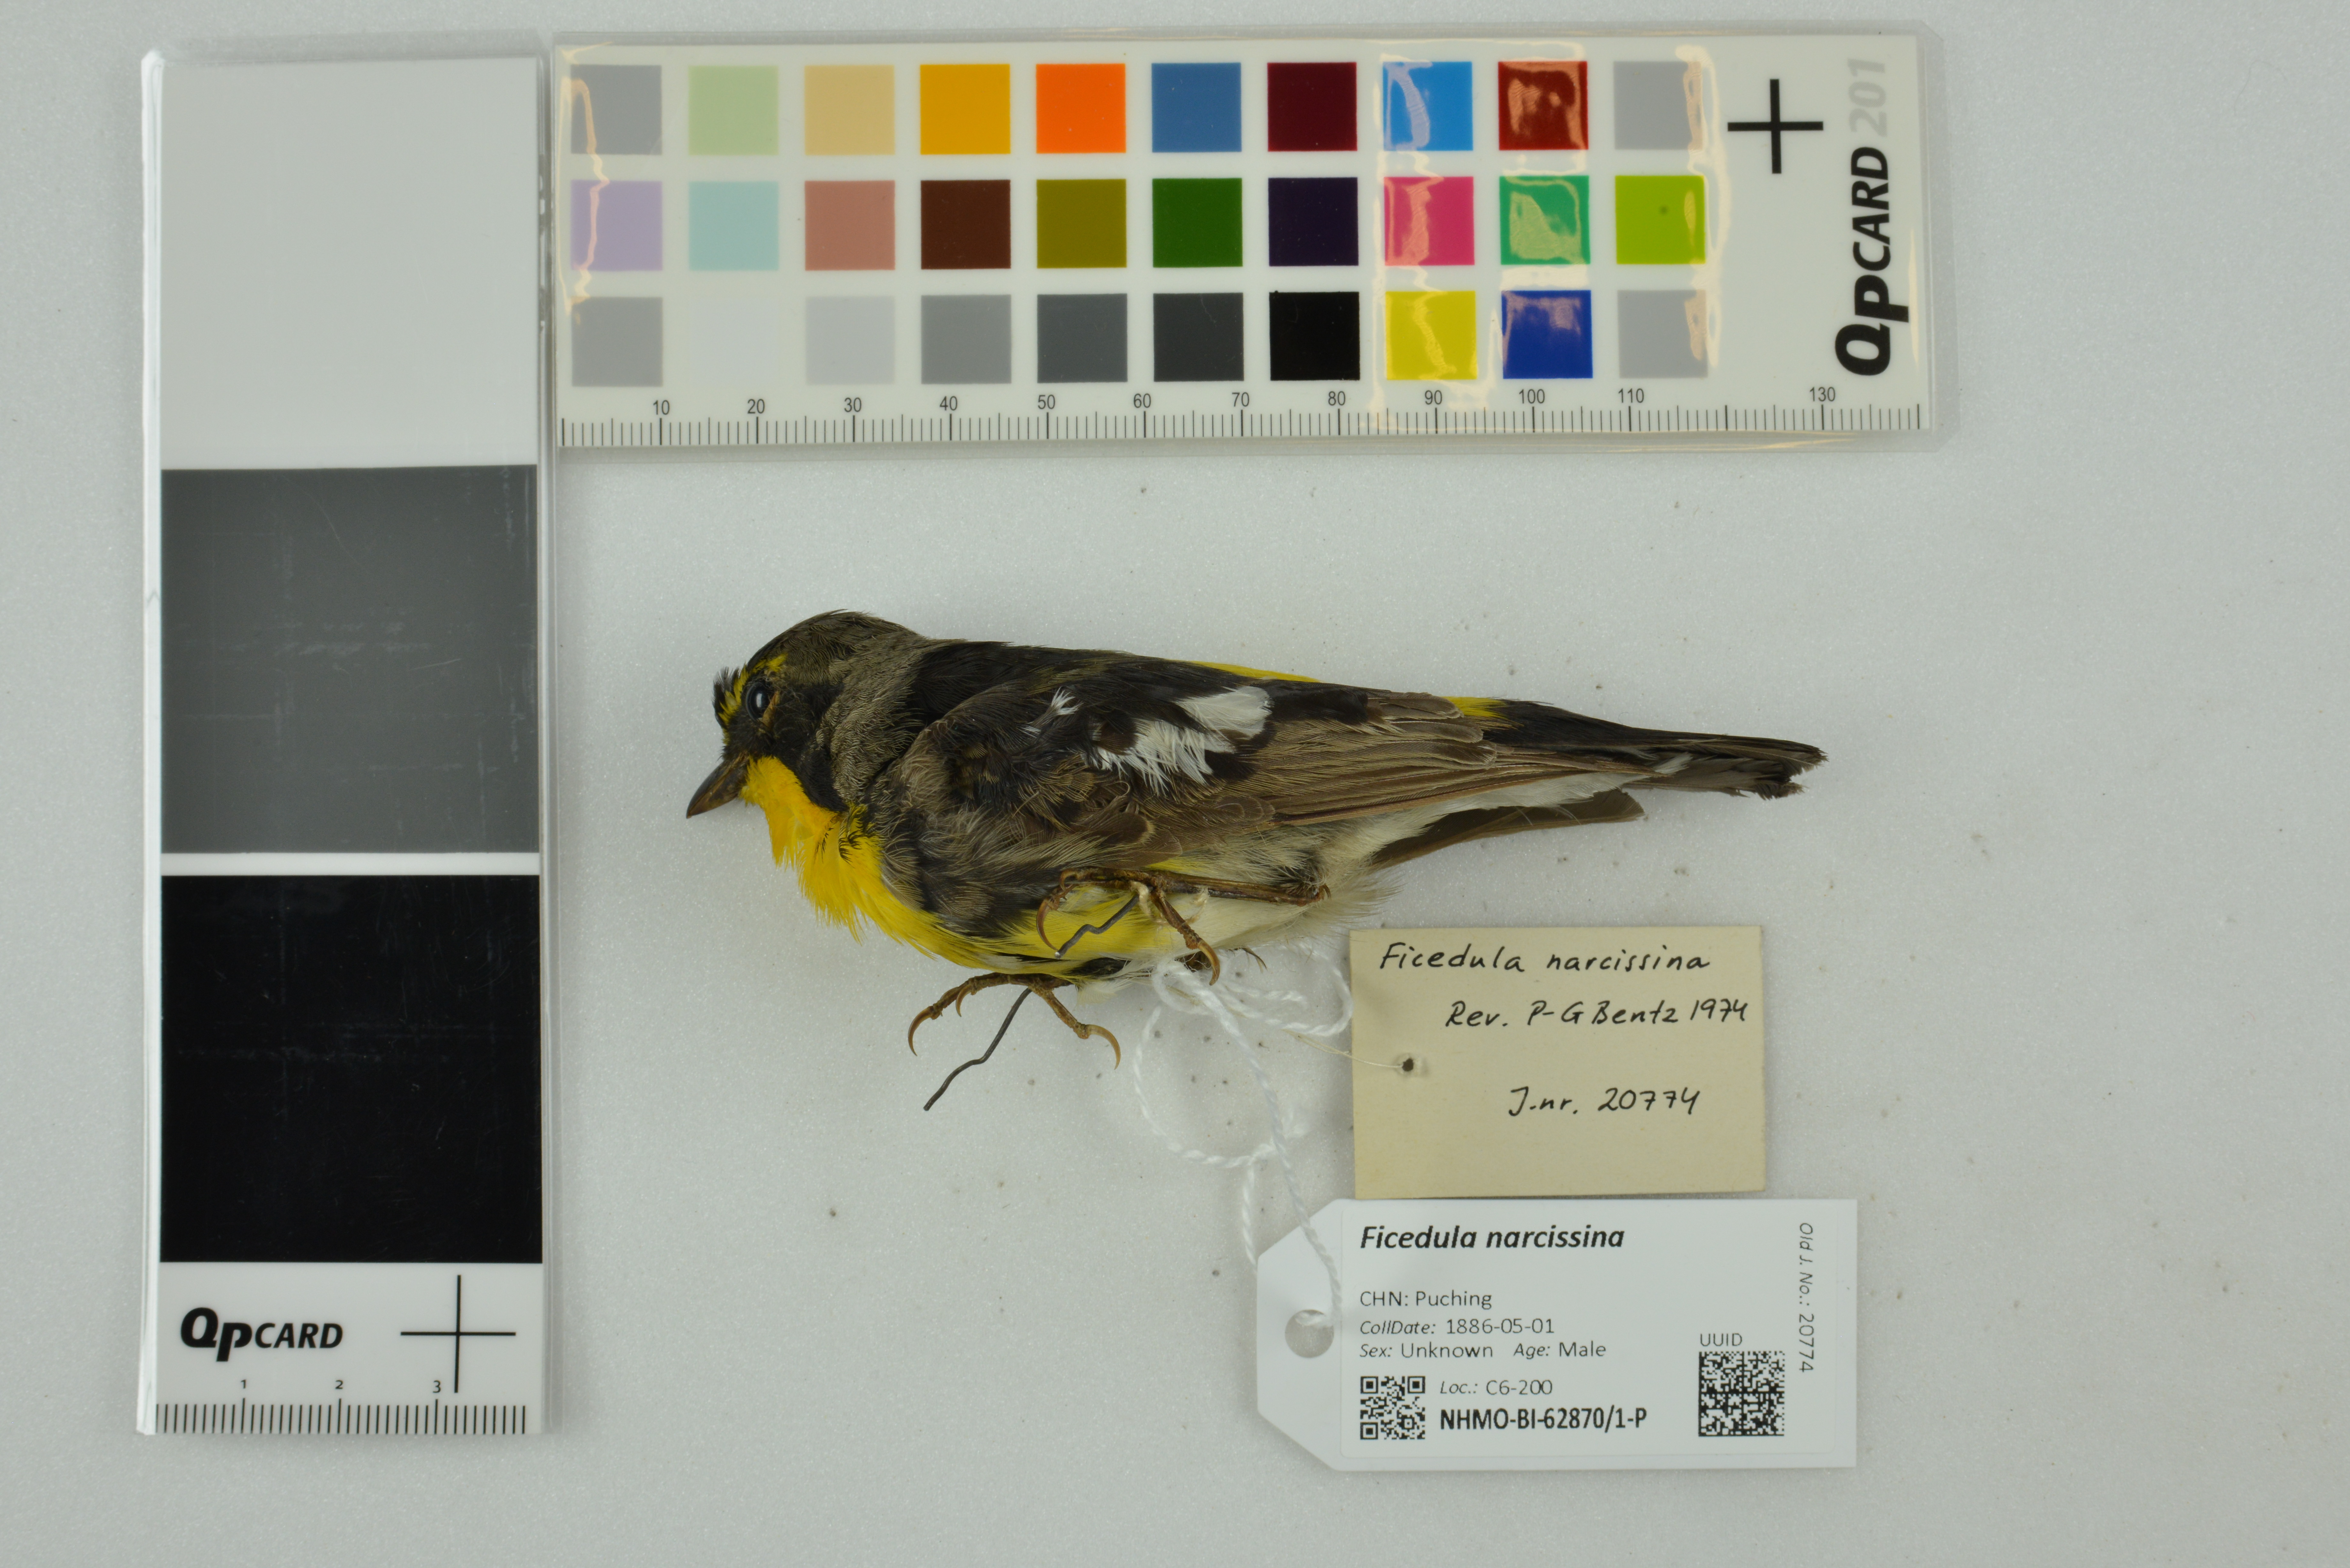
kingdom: Animalia
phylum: Chordata
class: Aves
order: Passeriformes
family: Muscicapidae
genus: Ficedula
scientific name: Ficedula narcissina
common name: Narcissus flycatcher
